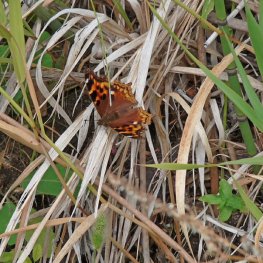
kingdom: Animalia
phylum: Arthropoda
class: Insecta
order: Lepidoptera
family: Nymphalidae
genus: Polygonia
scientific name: Polygonia vaualbum
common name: Compton Tortoiseshell
